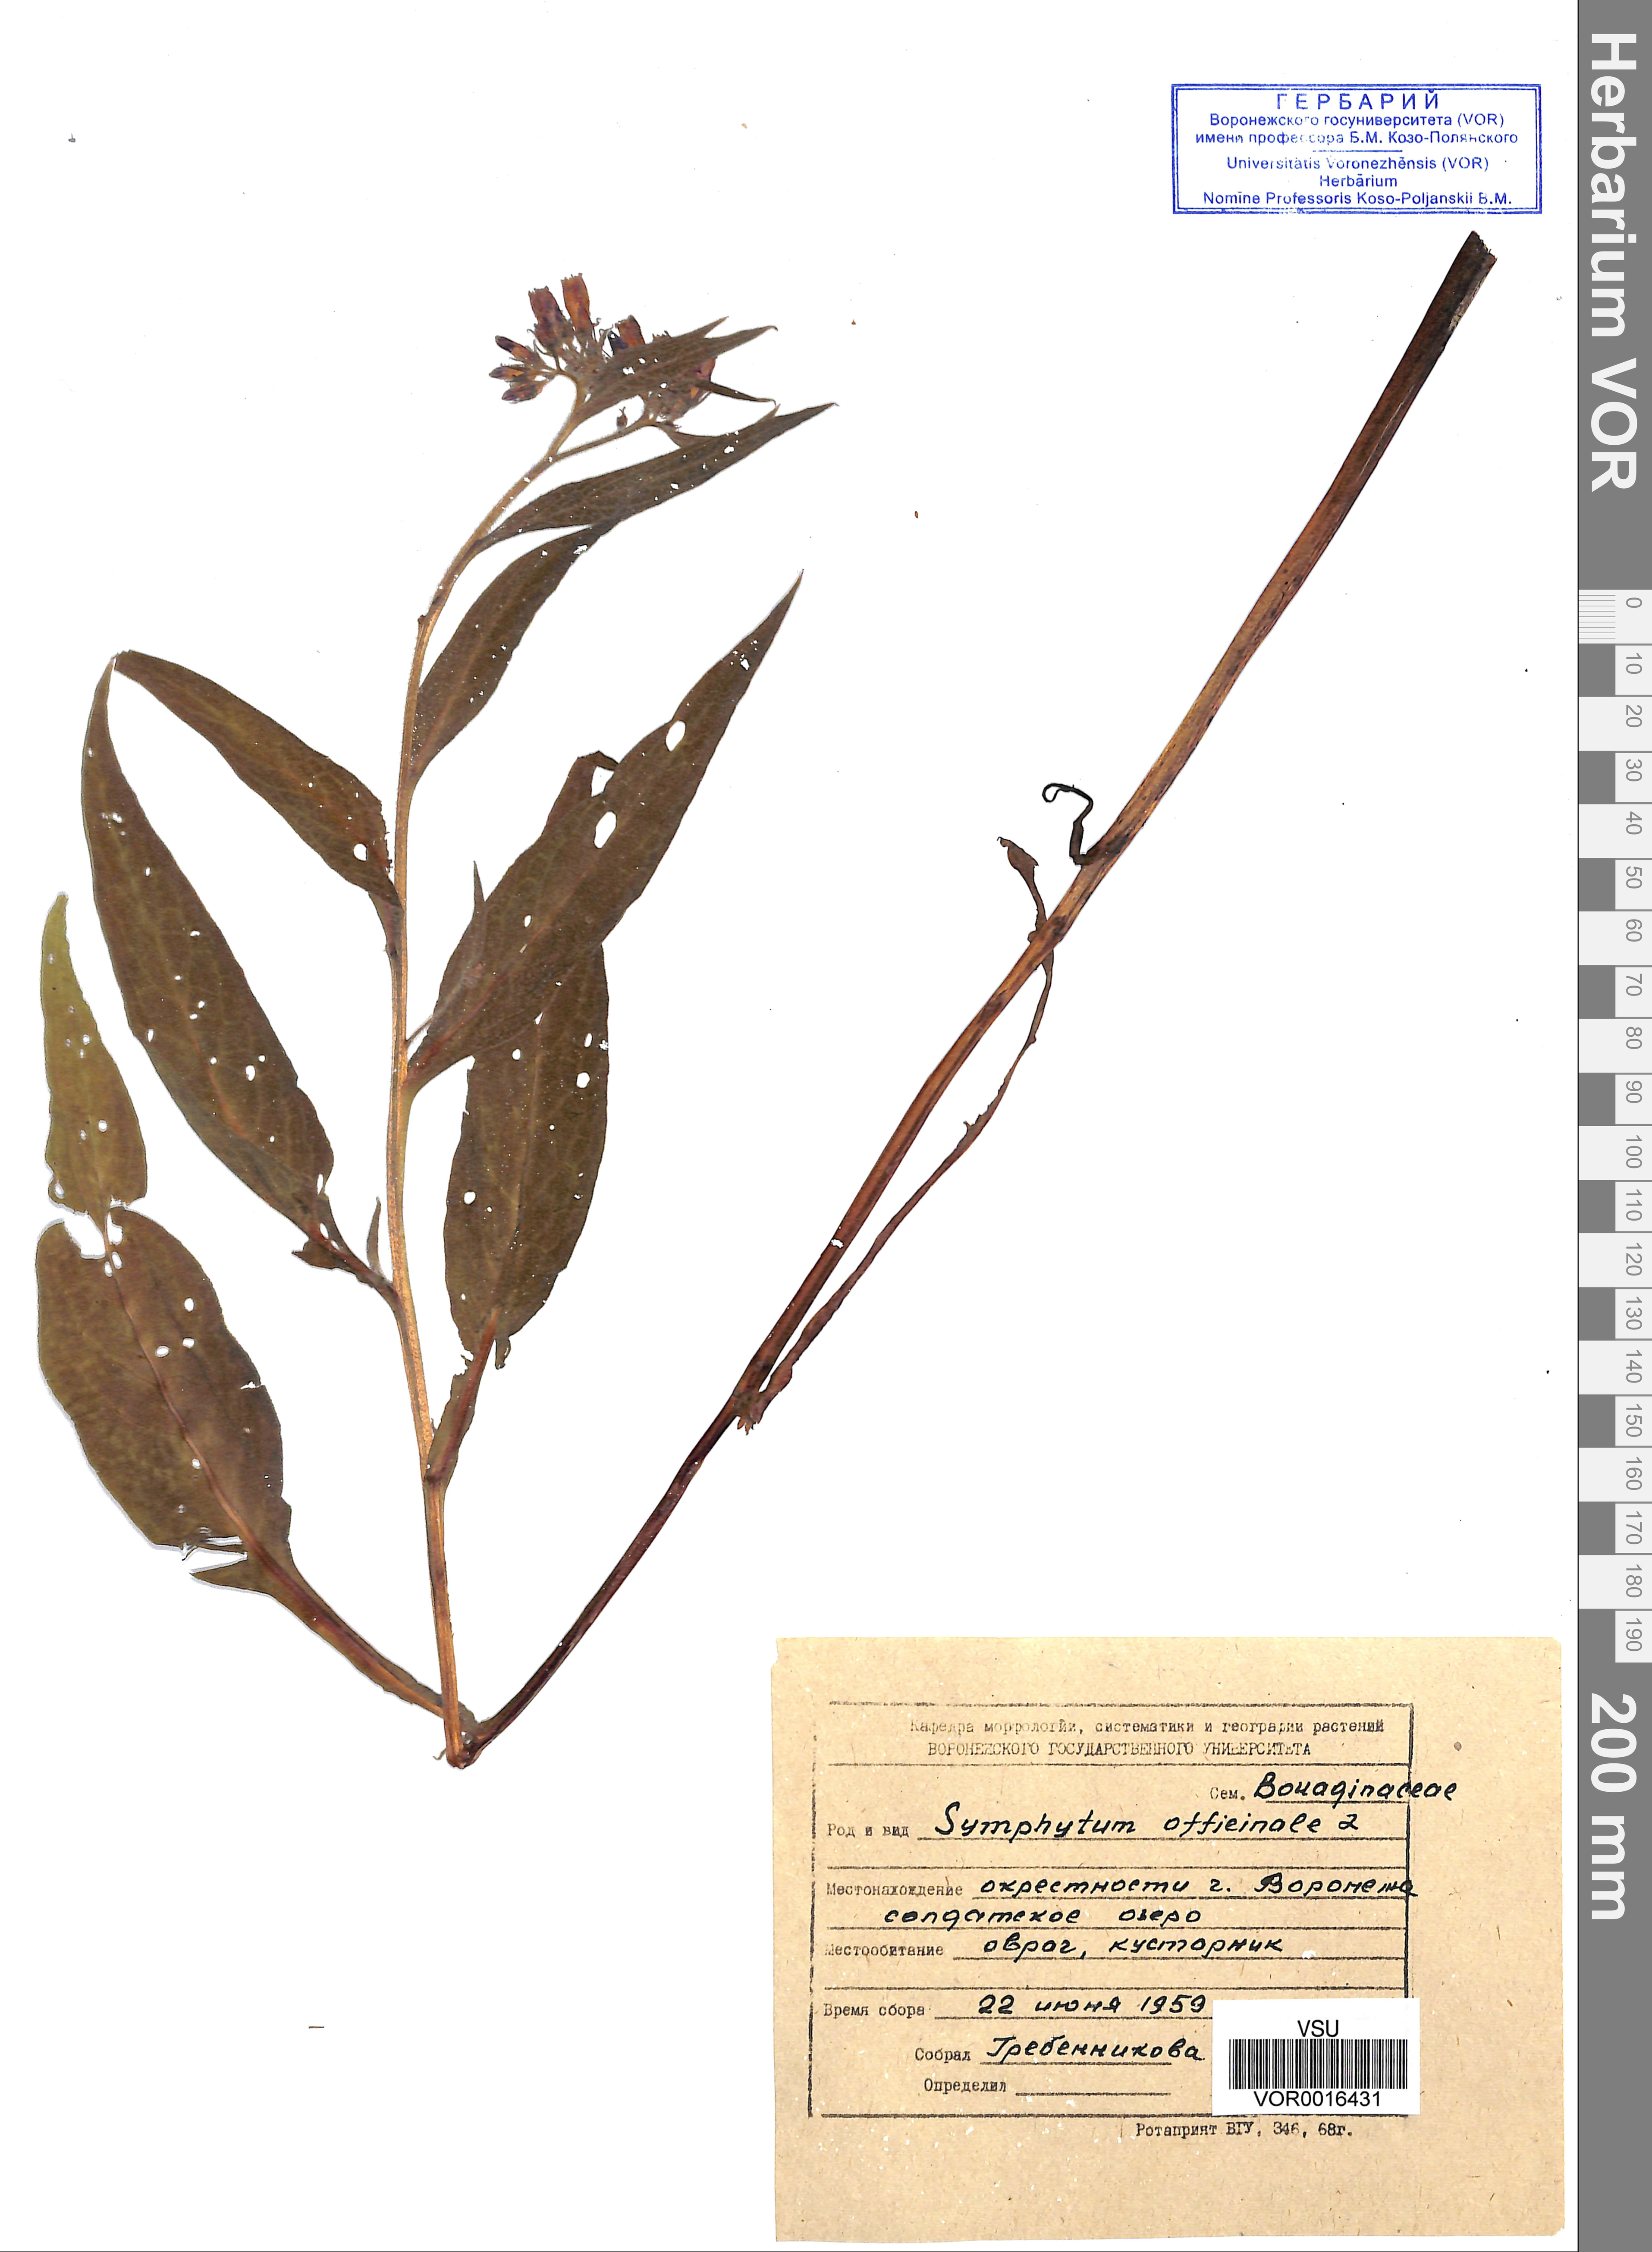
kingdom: Plantae
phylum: Tracheophyta
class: Magnoliopsida
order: Boraginales
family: Boraginaceae
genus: Symphytum
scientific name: Symphytum officinale
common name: Common comfrey
